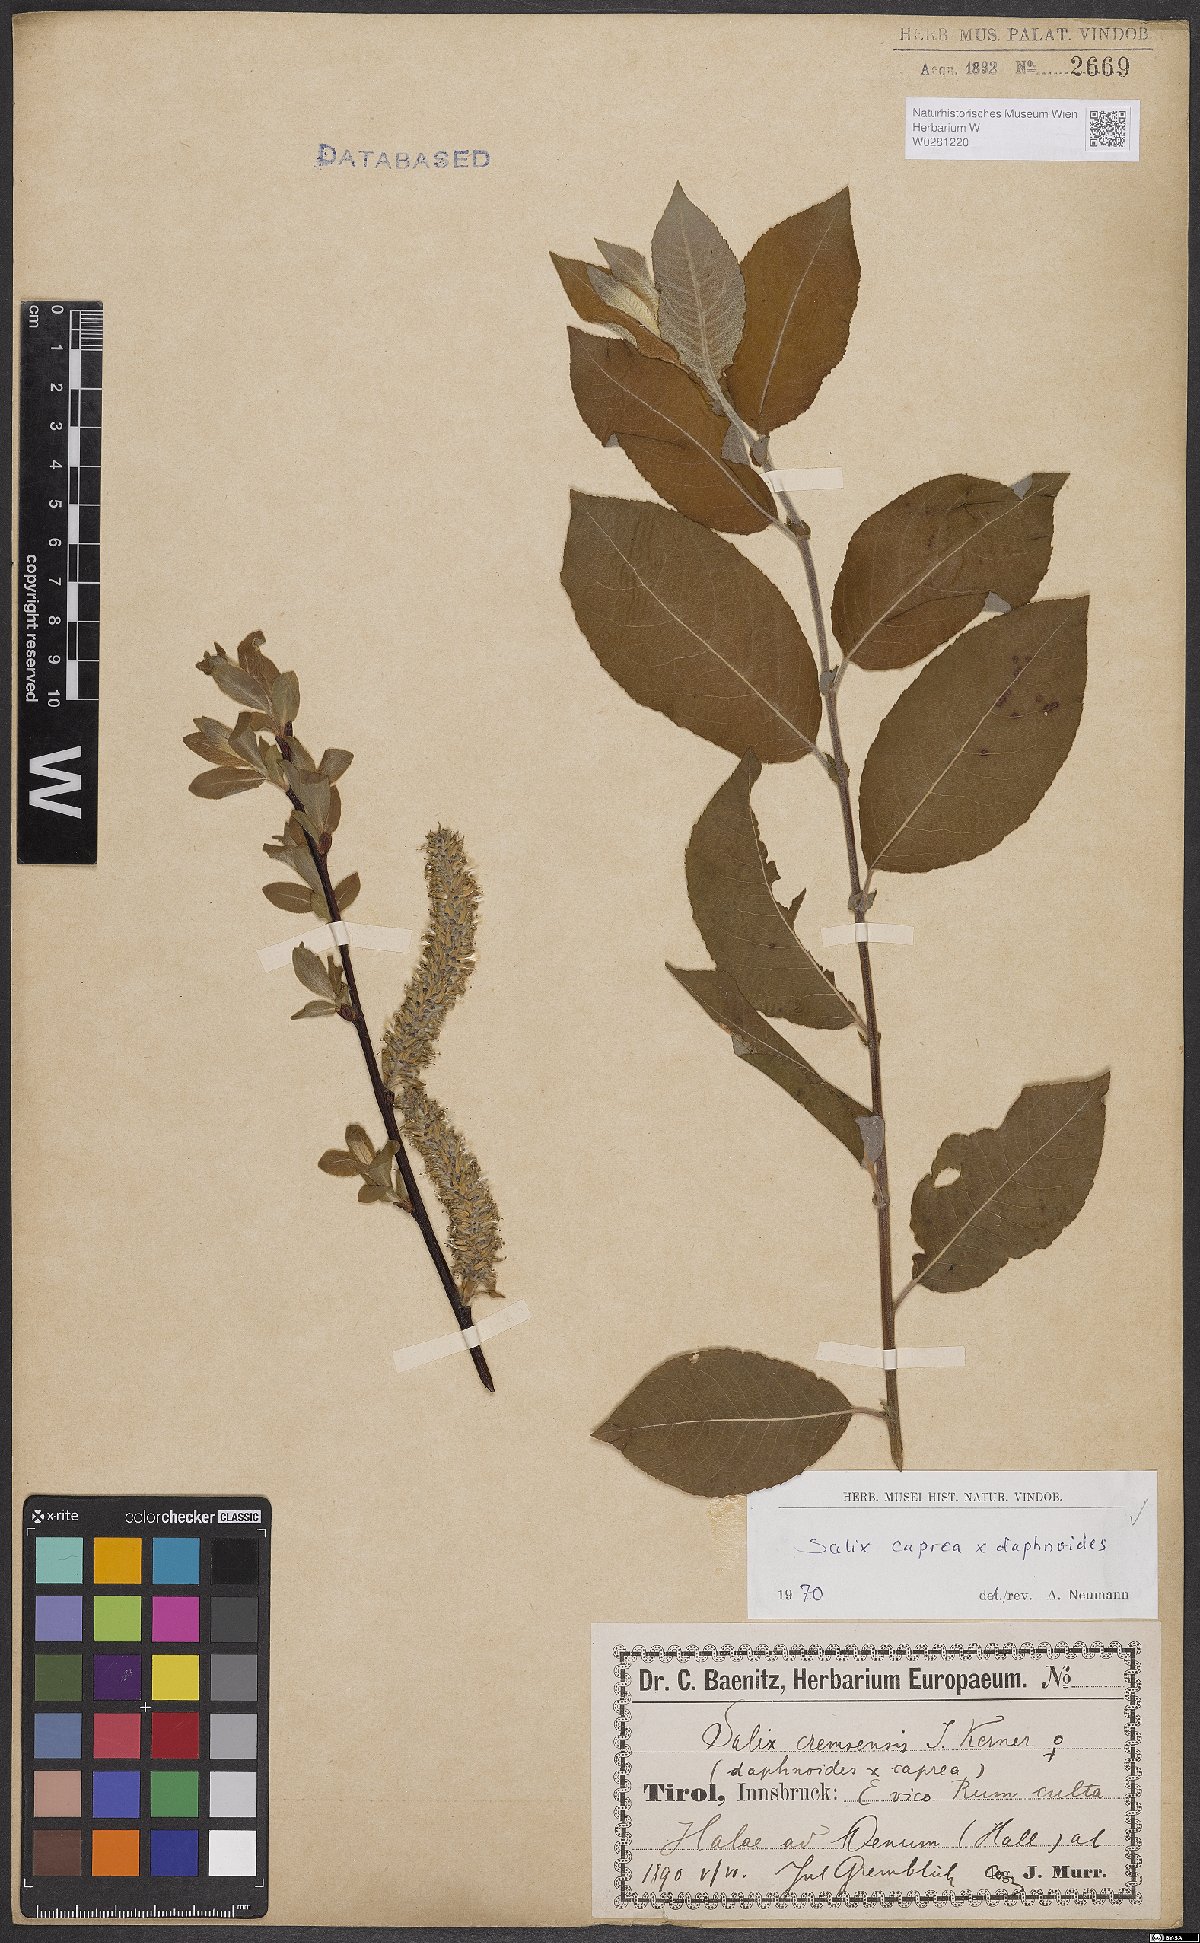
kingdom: Plantae
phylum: Tracheophyta
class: Magnoliopsida
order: Malpighiales
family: Salicaceae
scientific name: Salicaceae
